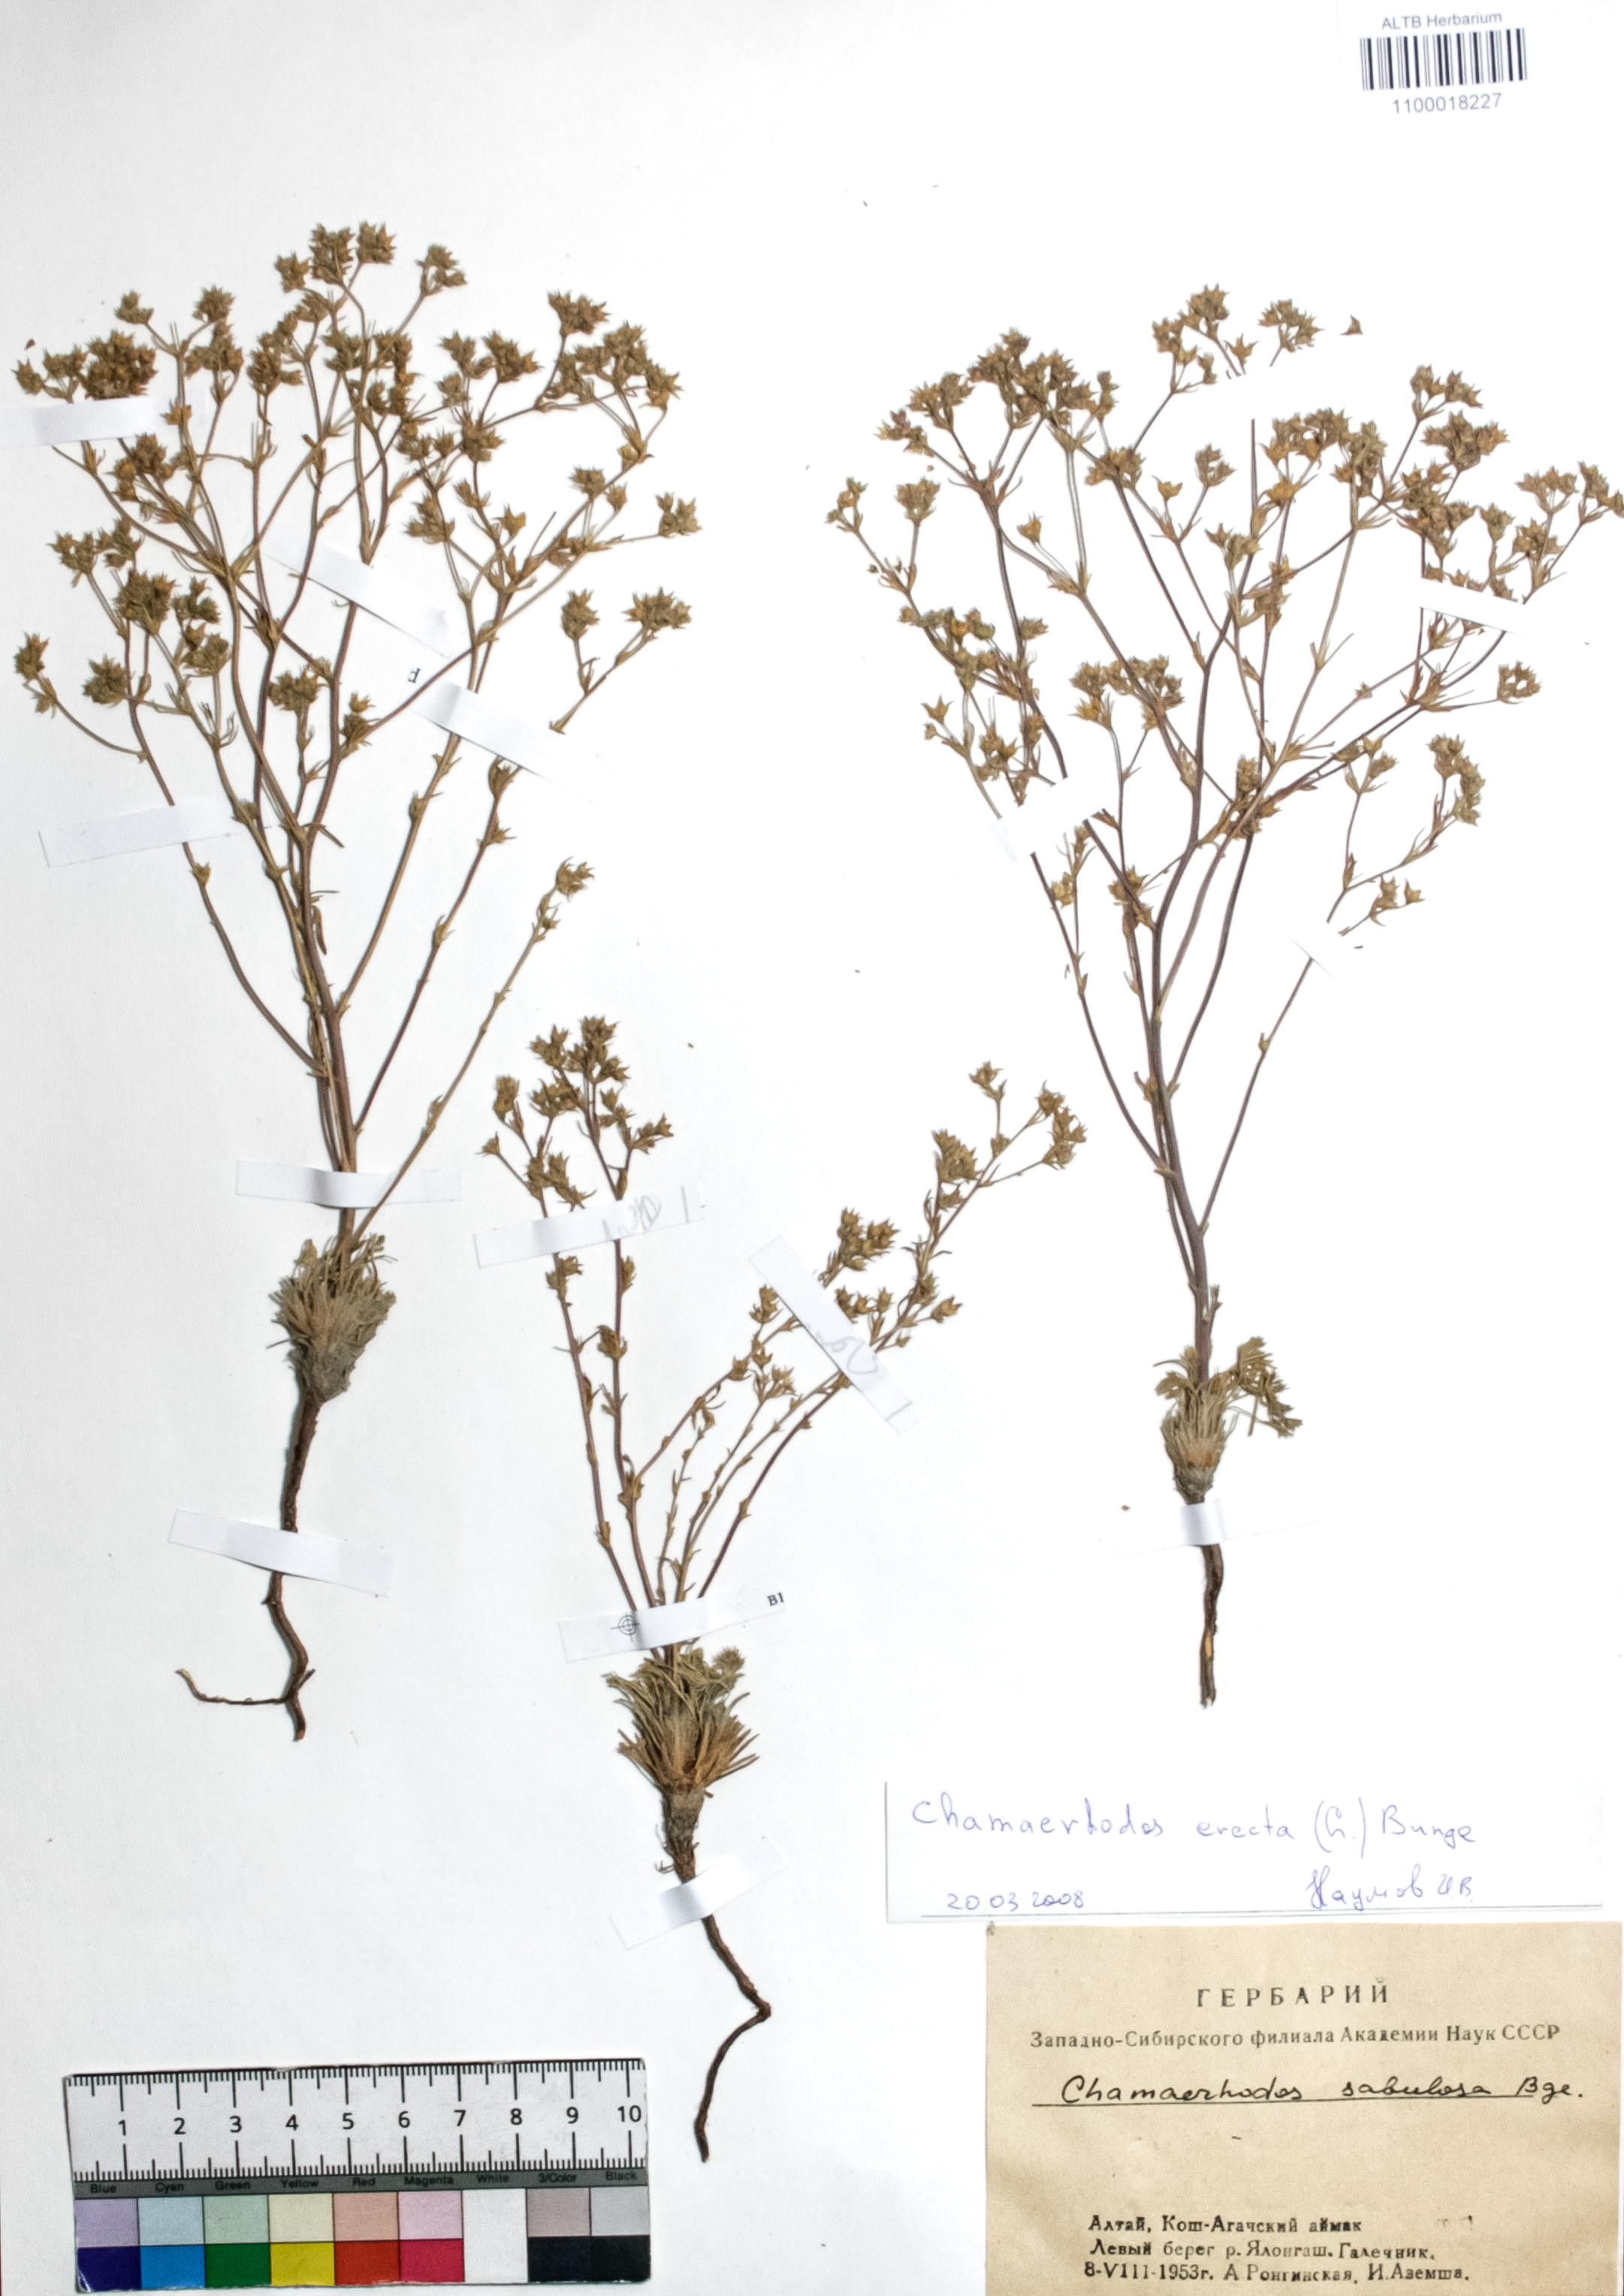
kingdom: Plantae
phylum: Tracheophyta
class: Magnoliopsida
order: Rosales
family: Rosaceae
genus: Chamaerhodos
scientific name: Chamaerhodos erecta
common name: American chamaerhodos
